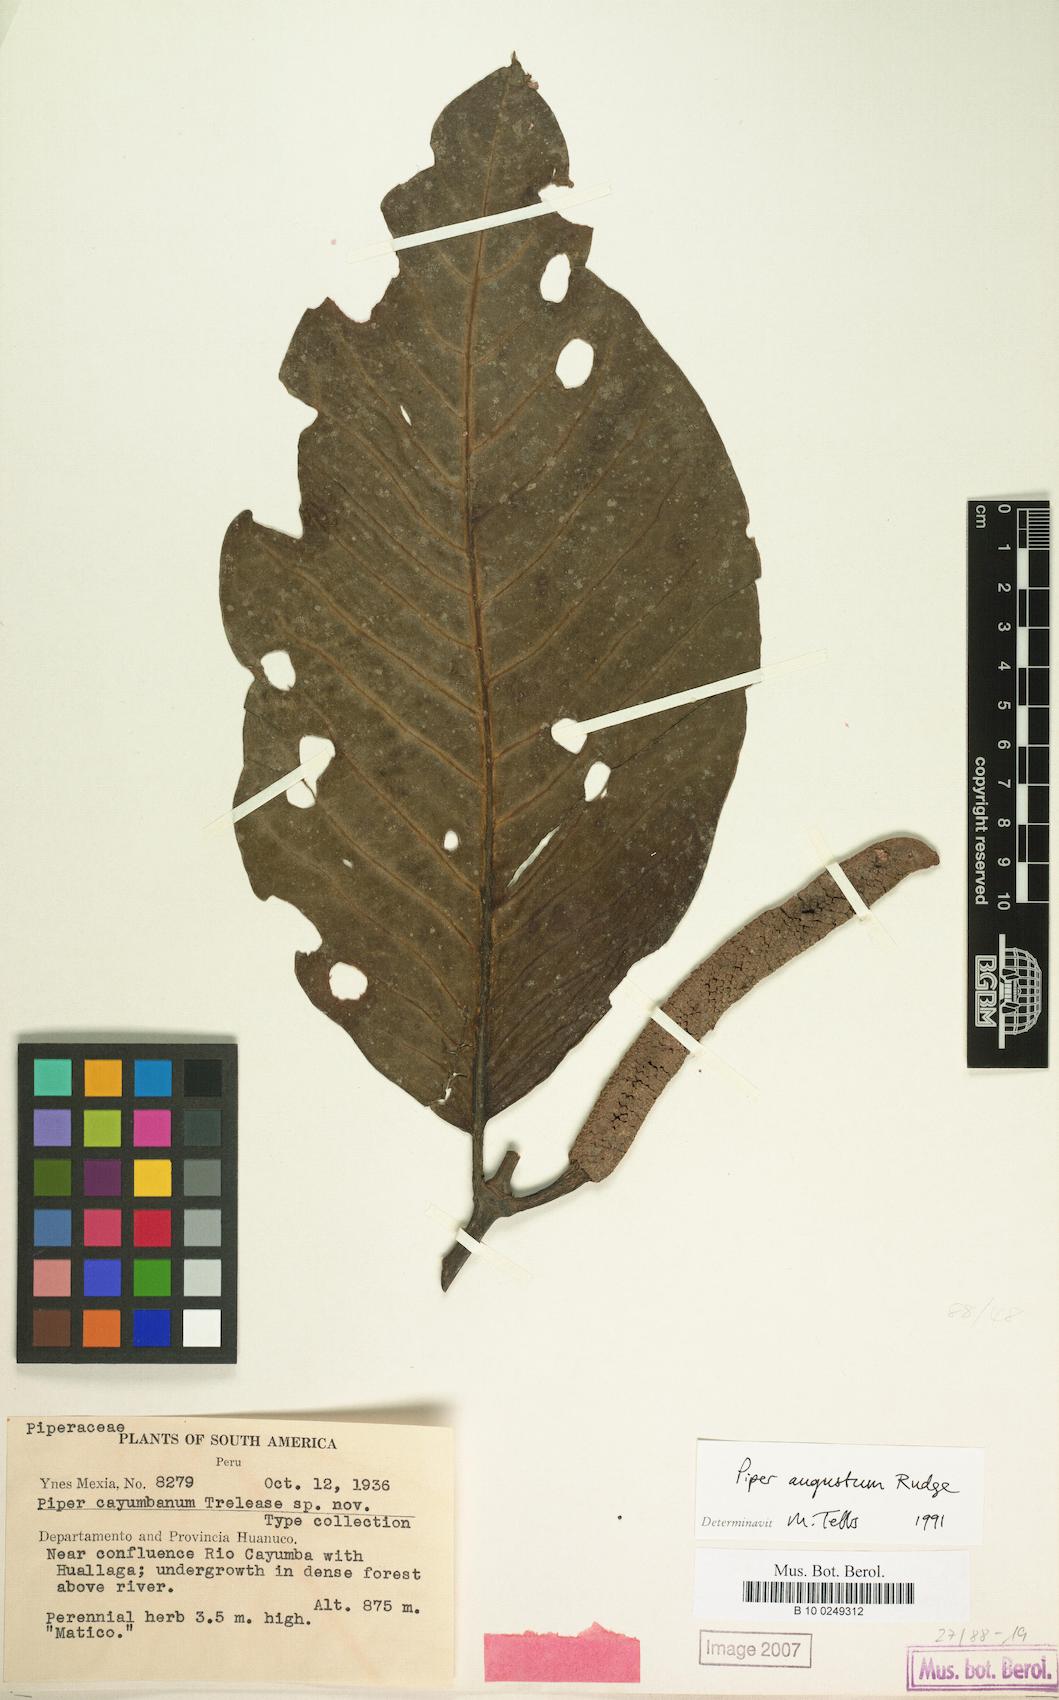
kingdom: Plantae
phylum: Tracheophyta
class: Magnoliopsida
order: Piperales
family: Piperaceae
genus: Piper
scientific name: Piper augustum
